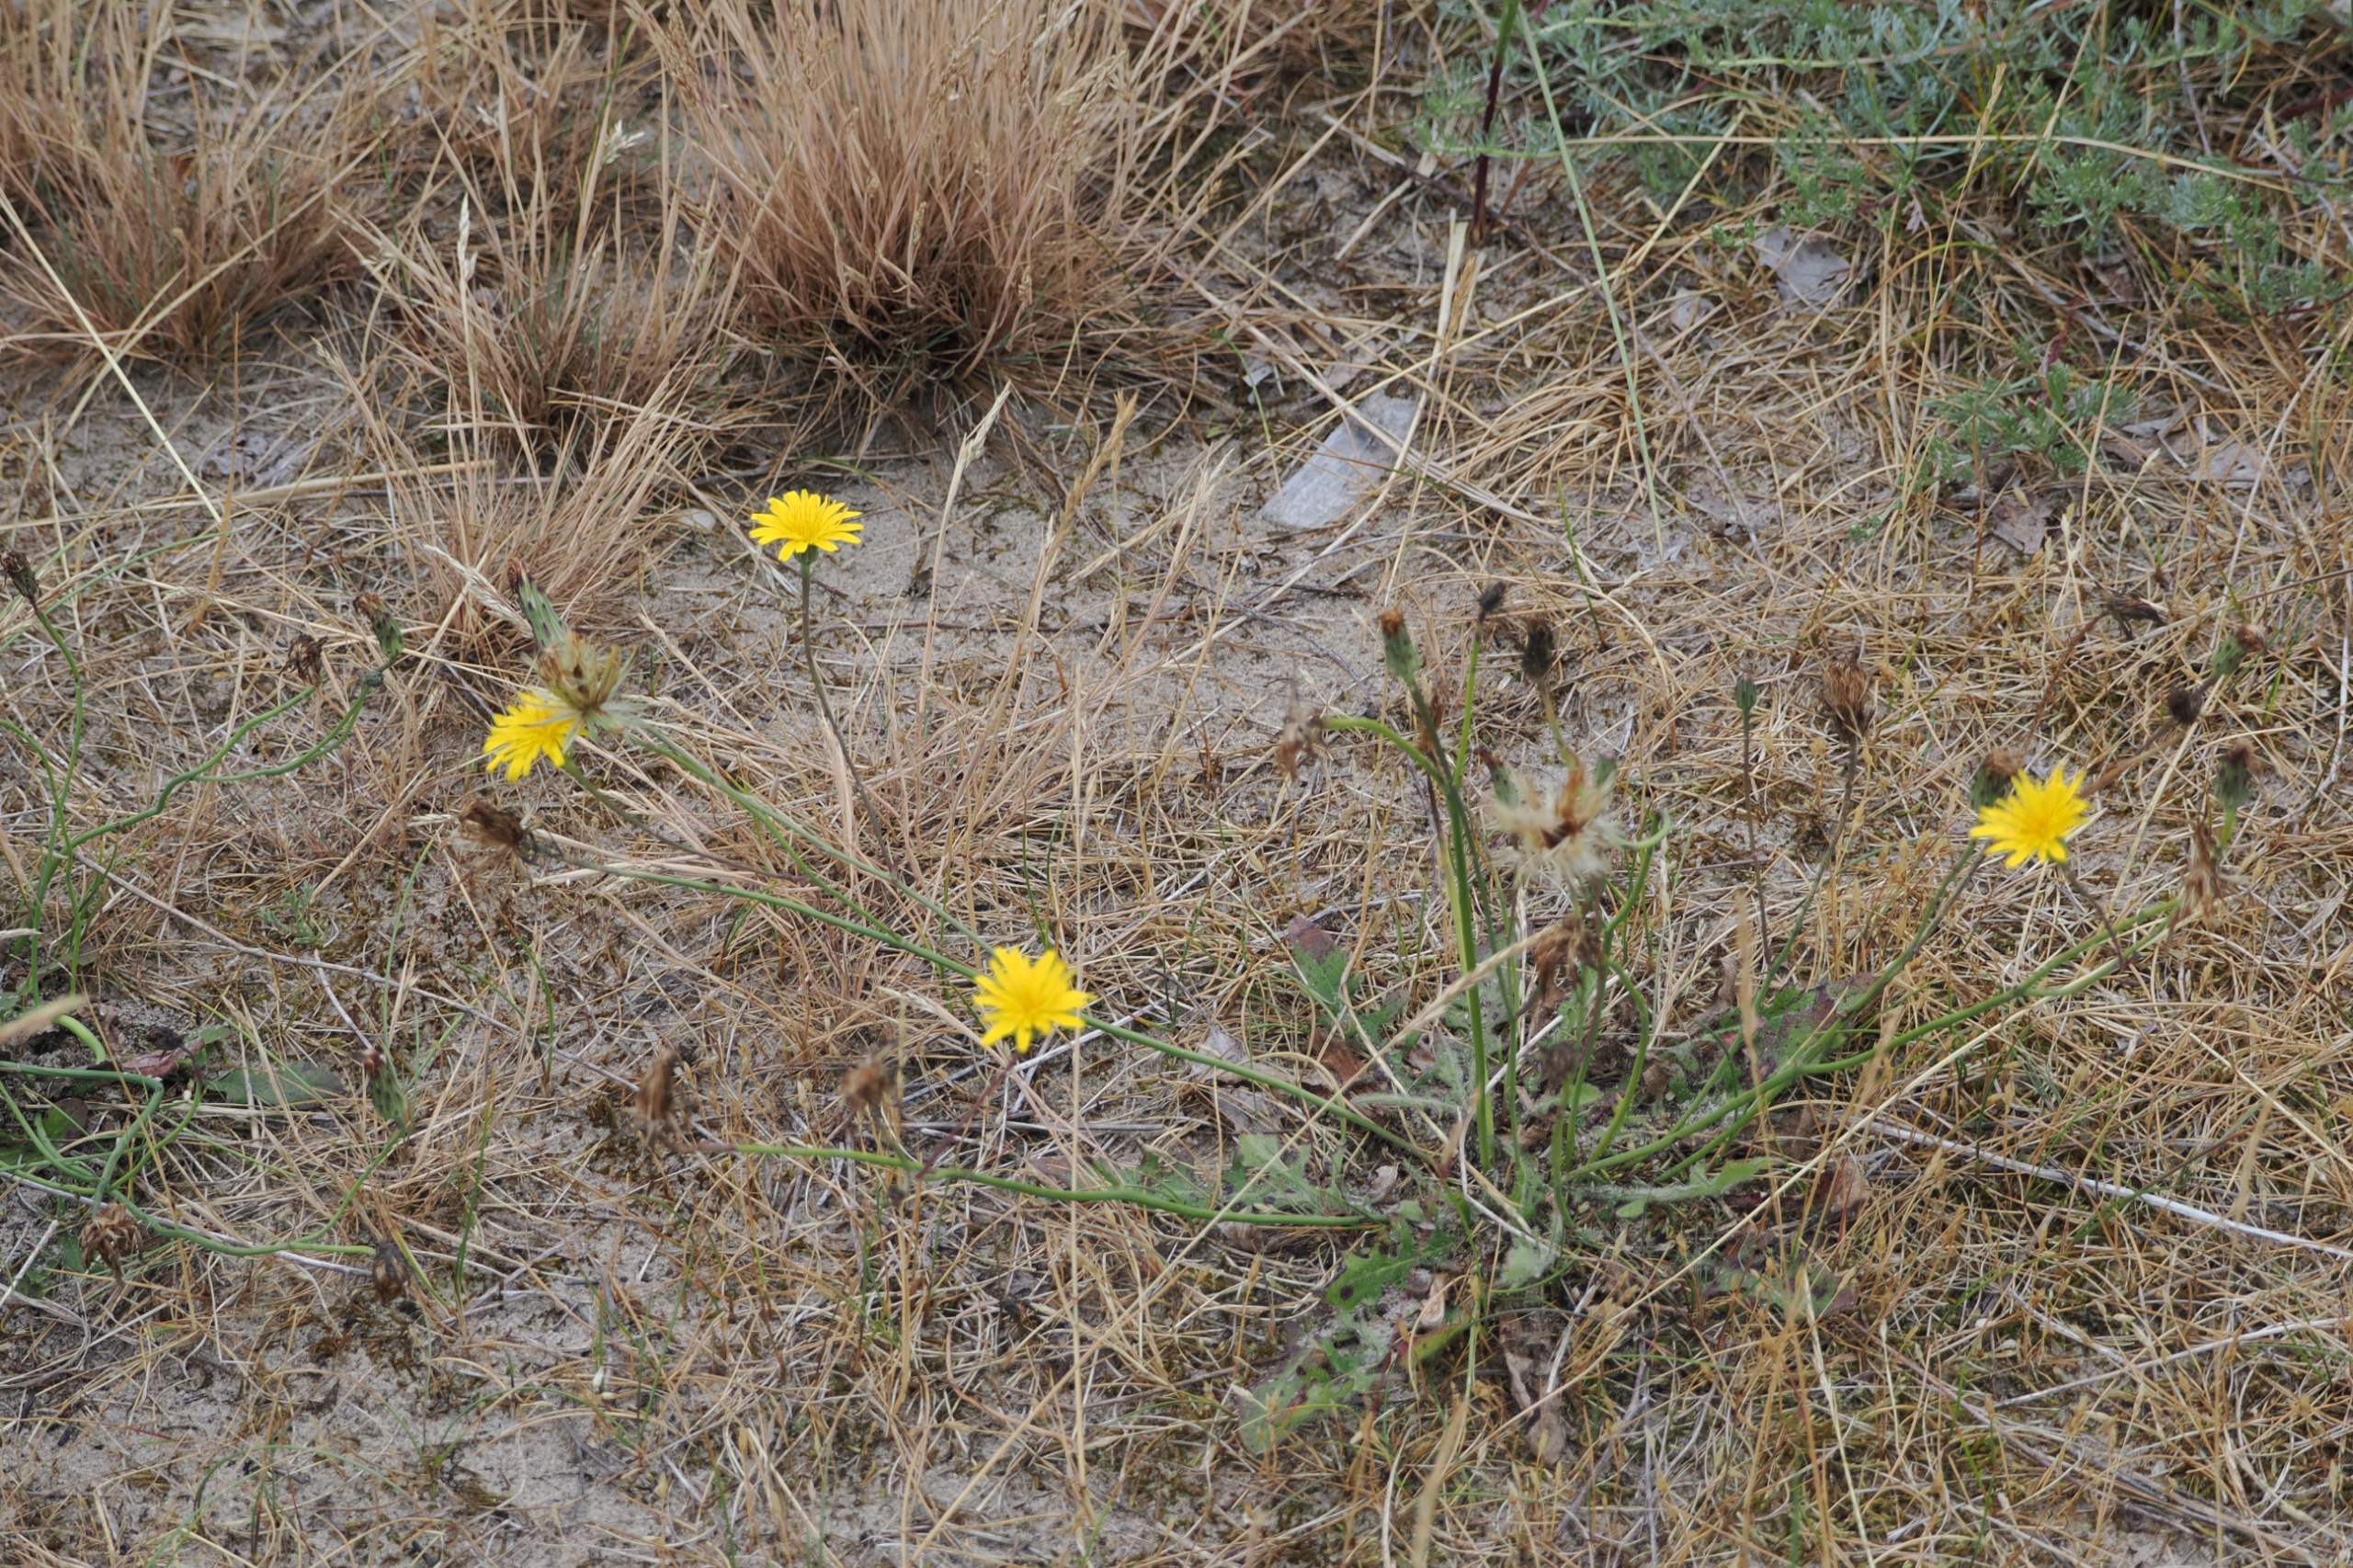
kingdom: Plantae
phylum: Tracheophyta
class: Magnoliopsida
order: Asterales
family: Asteraceae
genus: Hypochaeris
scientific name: Hypochaeris radicata
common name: Almindelig kongepen
